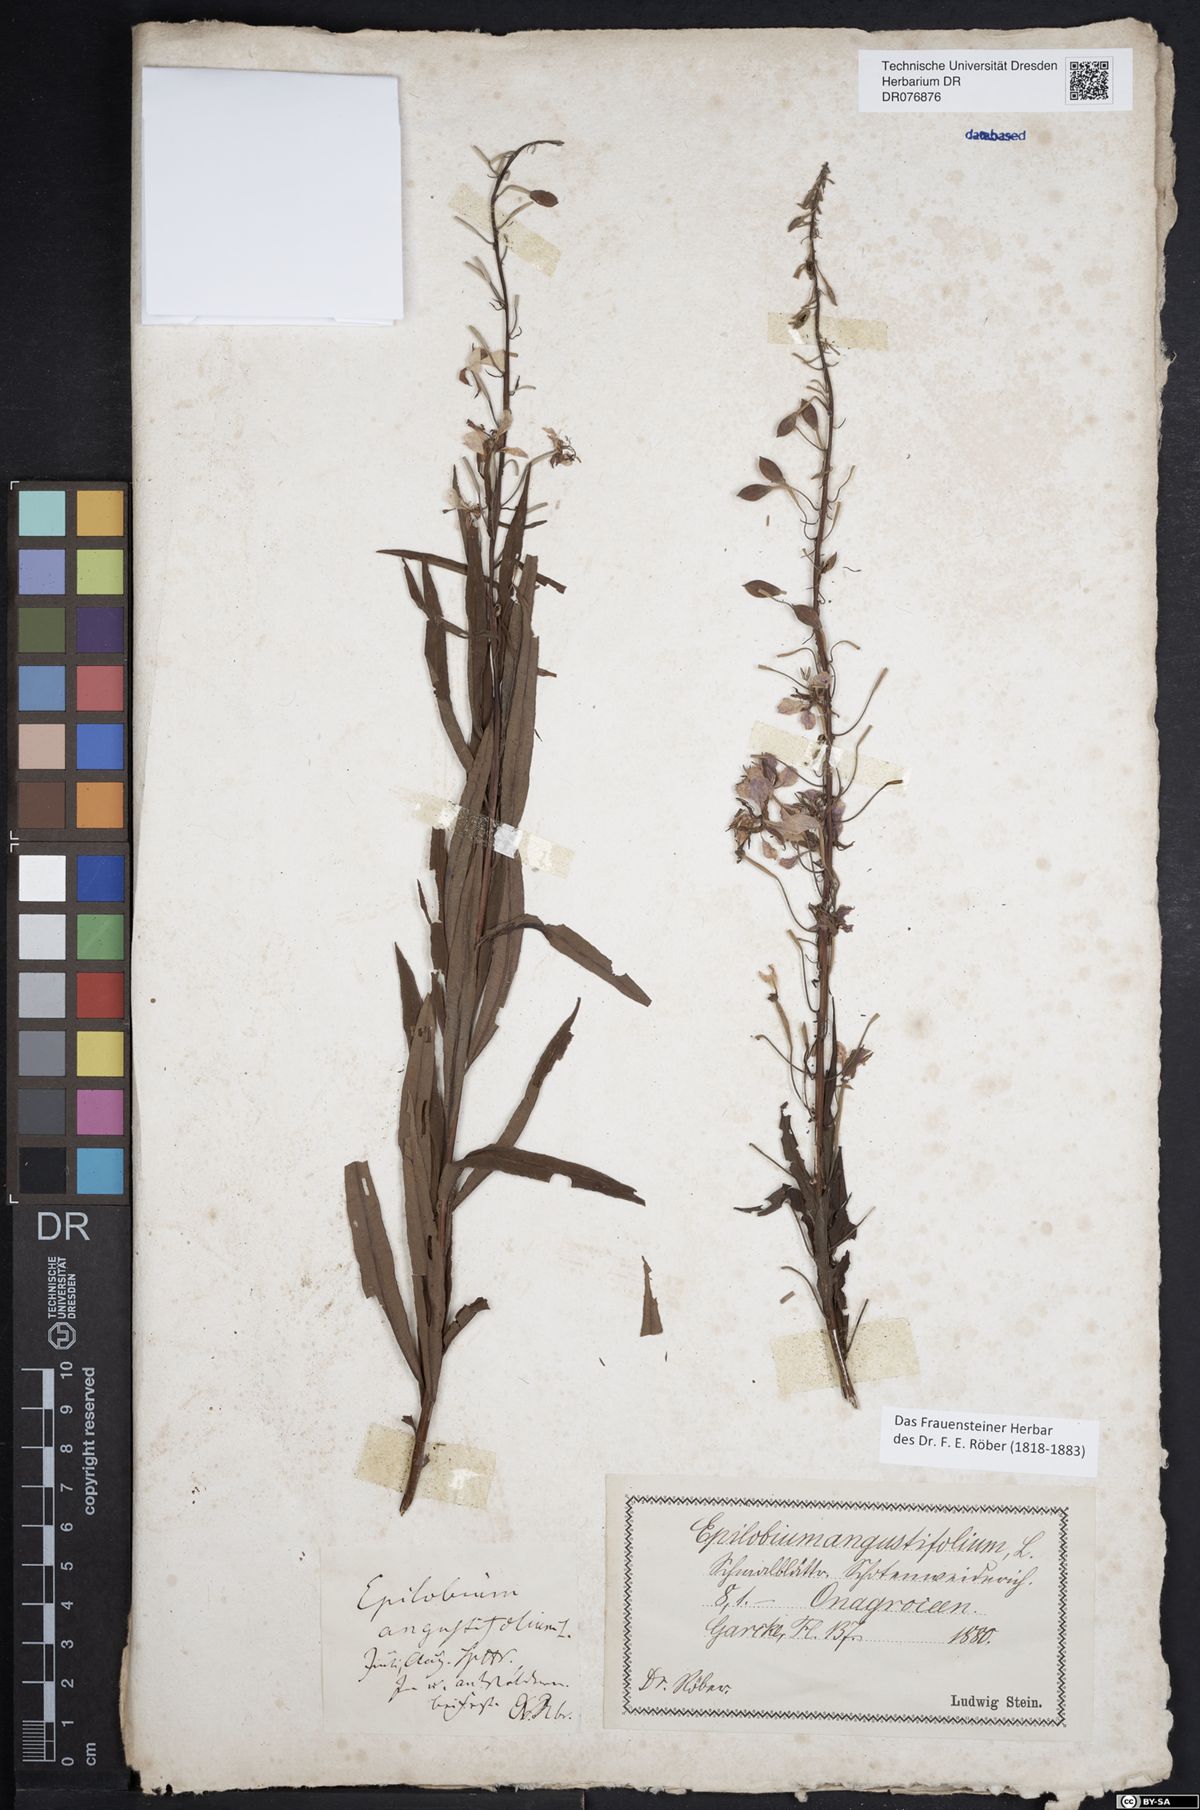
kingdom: Plantae
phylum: Tracheophyta
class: Magnoliopsida
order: Myrtales
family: Onagraceae
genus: Chamaenerion
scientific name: Chamaenerion angustifolium
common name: Fireweed
